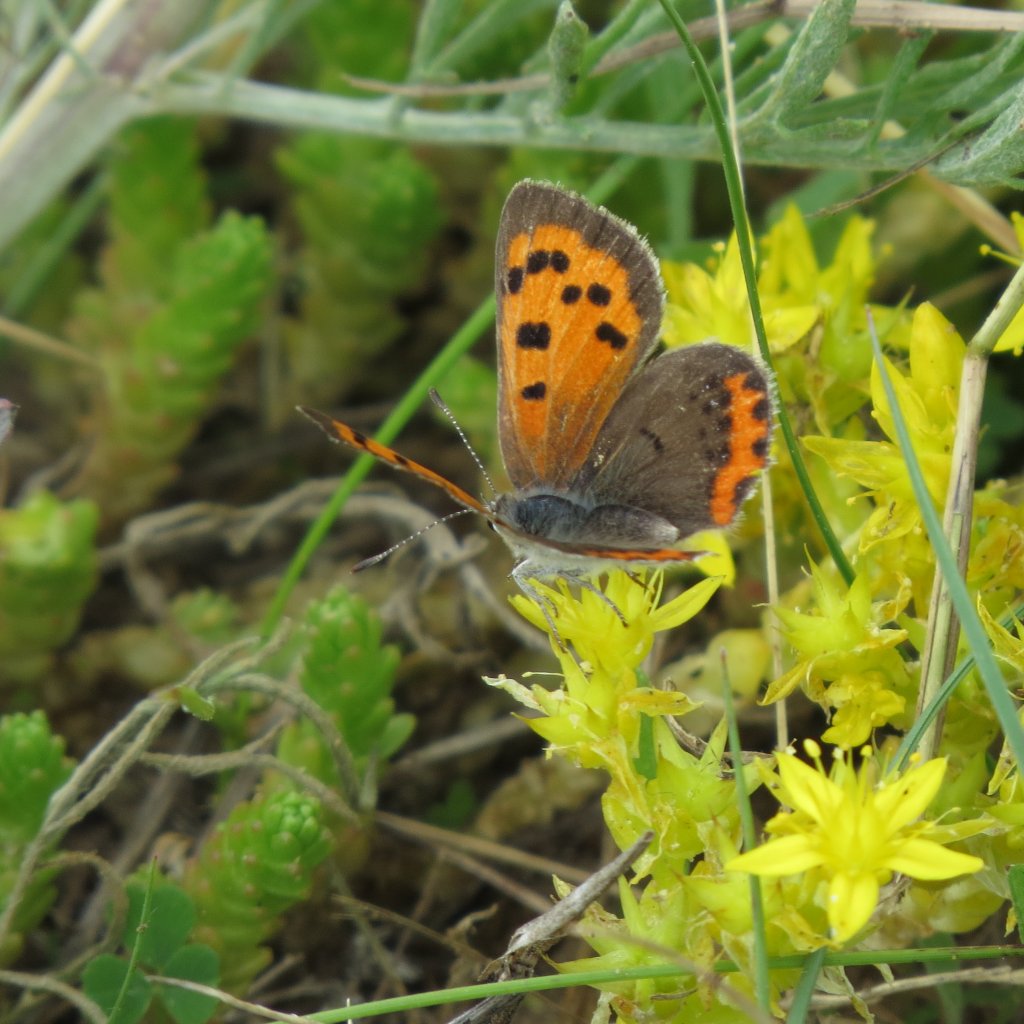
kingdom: Animalia
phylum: Arthropoda
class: Insecta
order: Lepidoptera
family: Lycaenidae
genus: Lycaena
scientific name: Lycaena phlaeas
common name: American Copper
